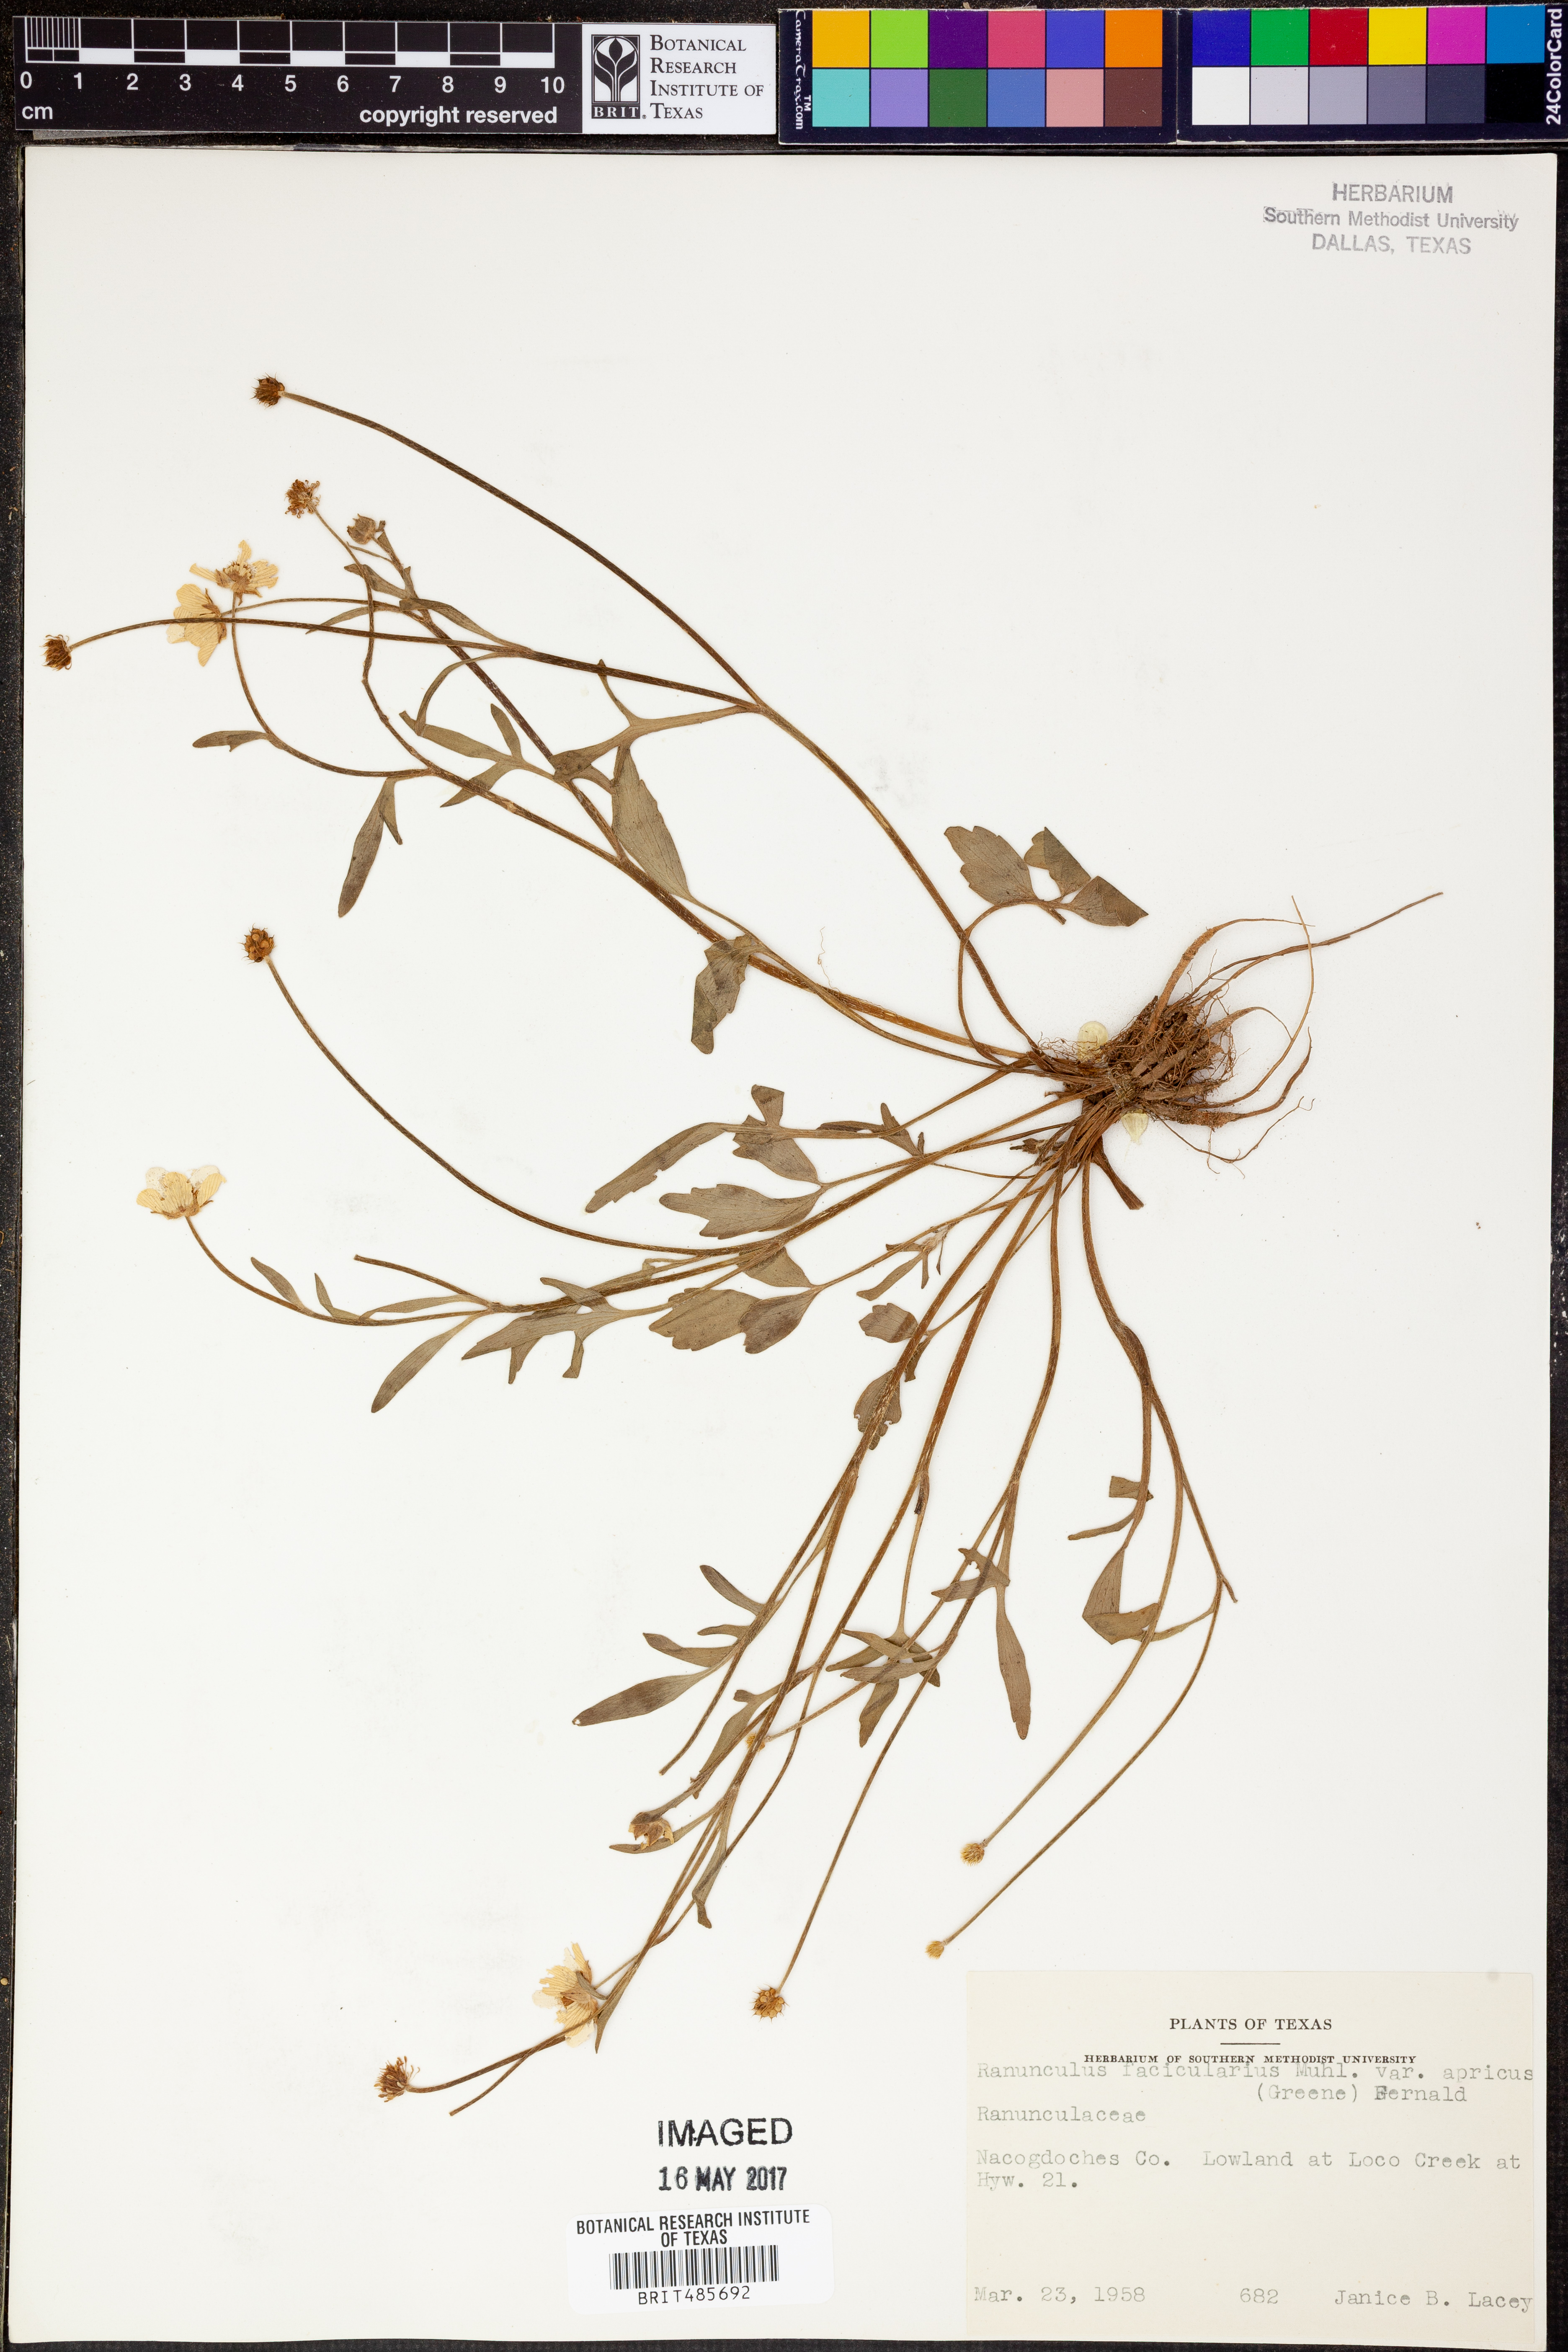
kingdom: Plantae
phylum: Tracheophyta
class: Magnoliopsida
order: Ranunculales
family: Ranunculaceae
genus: Ranunculus
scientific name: Ranunculus fascicularis
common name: Early buttercup
